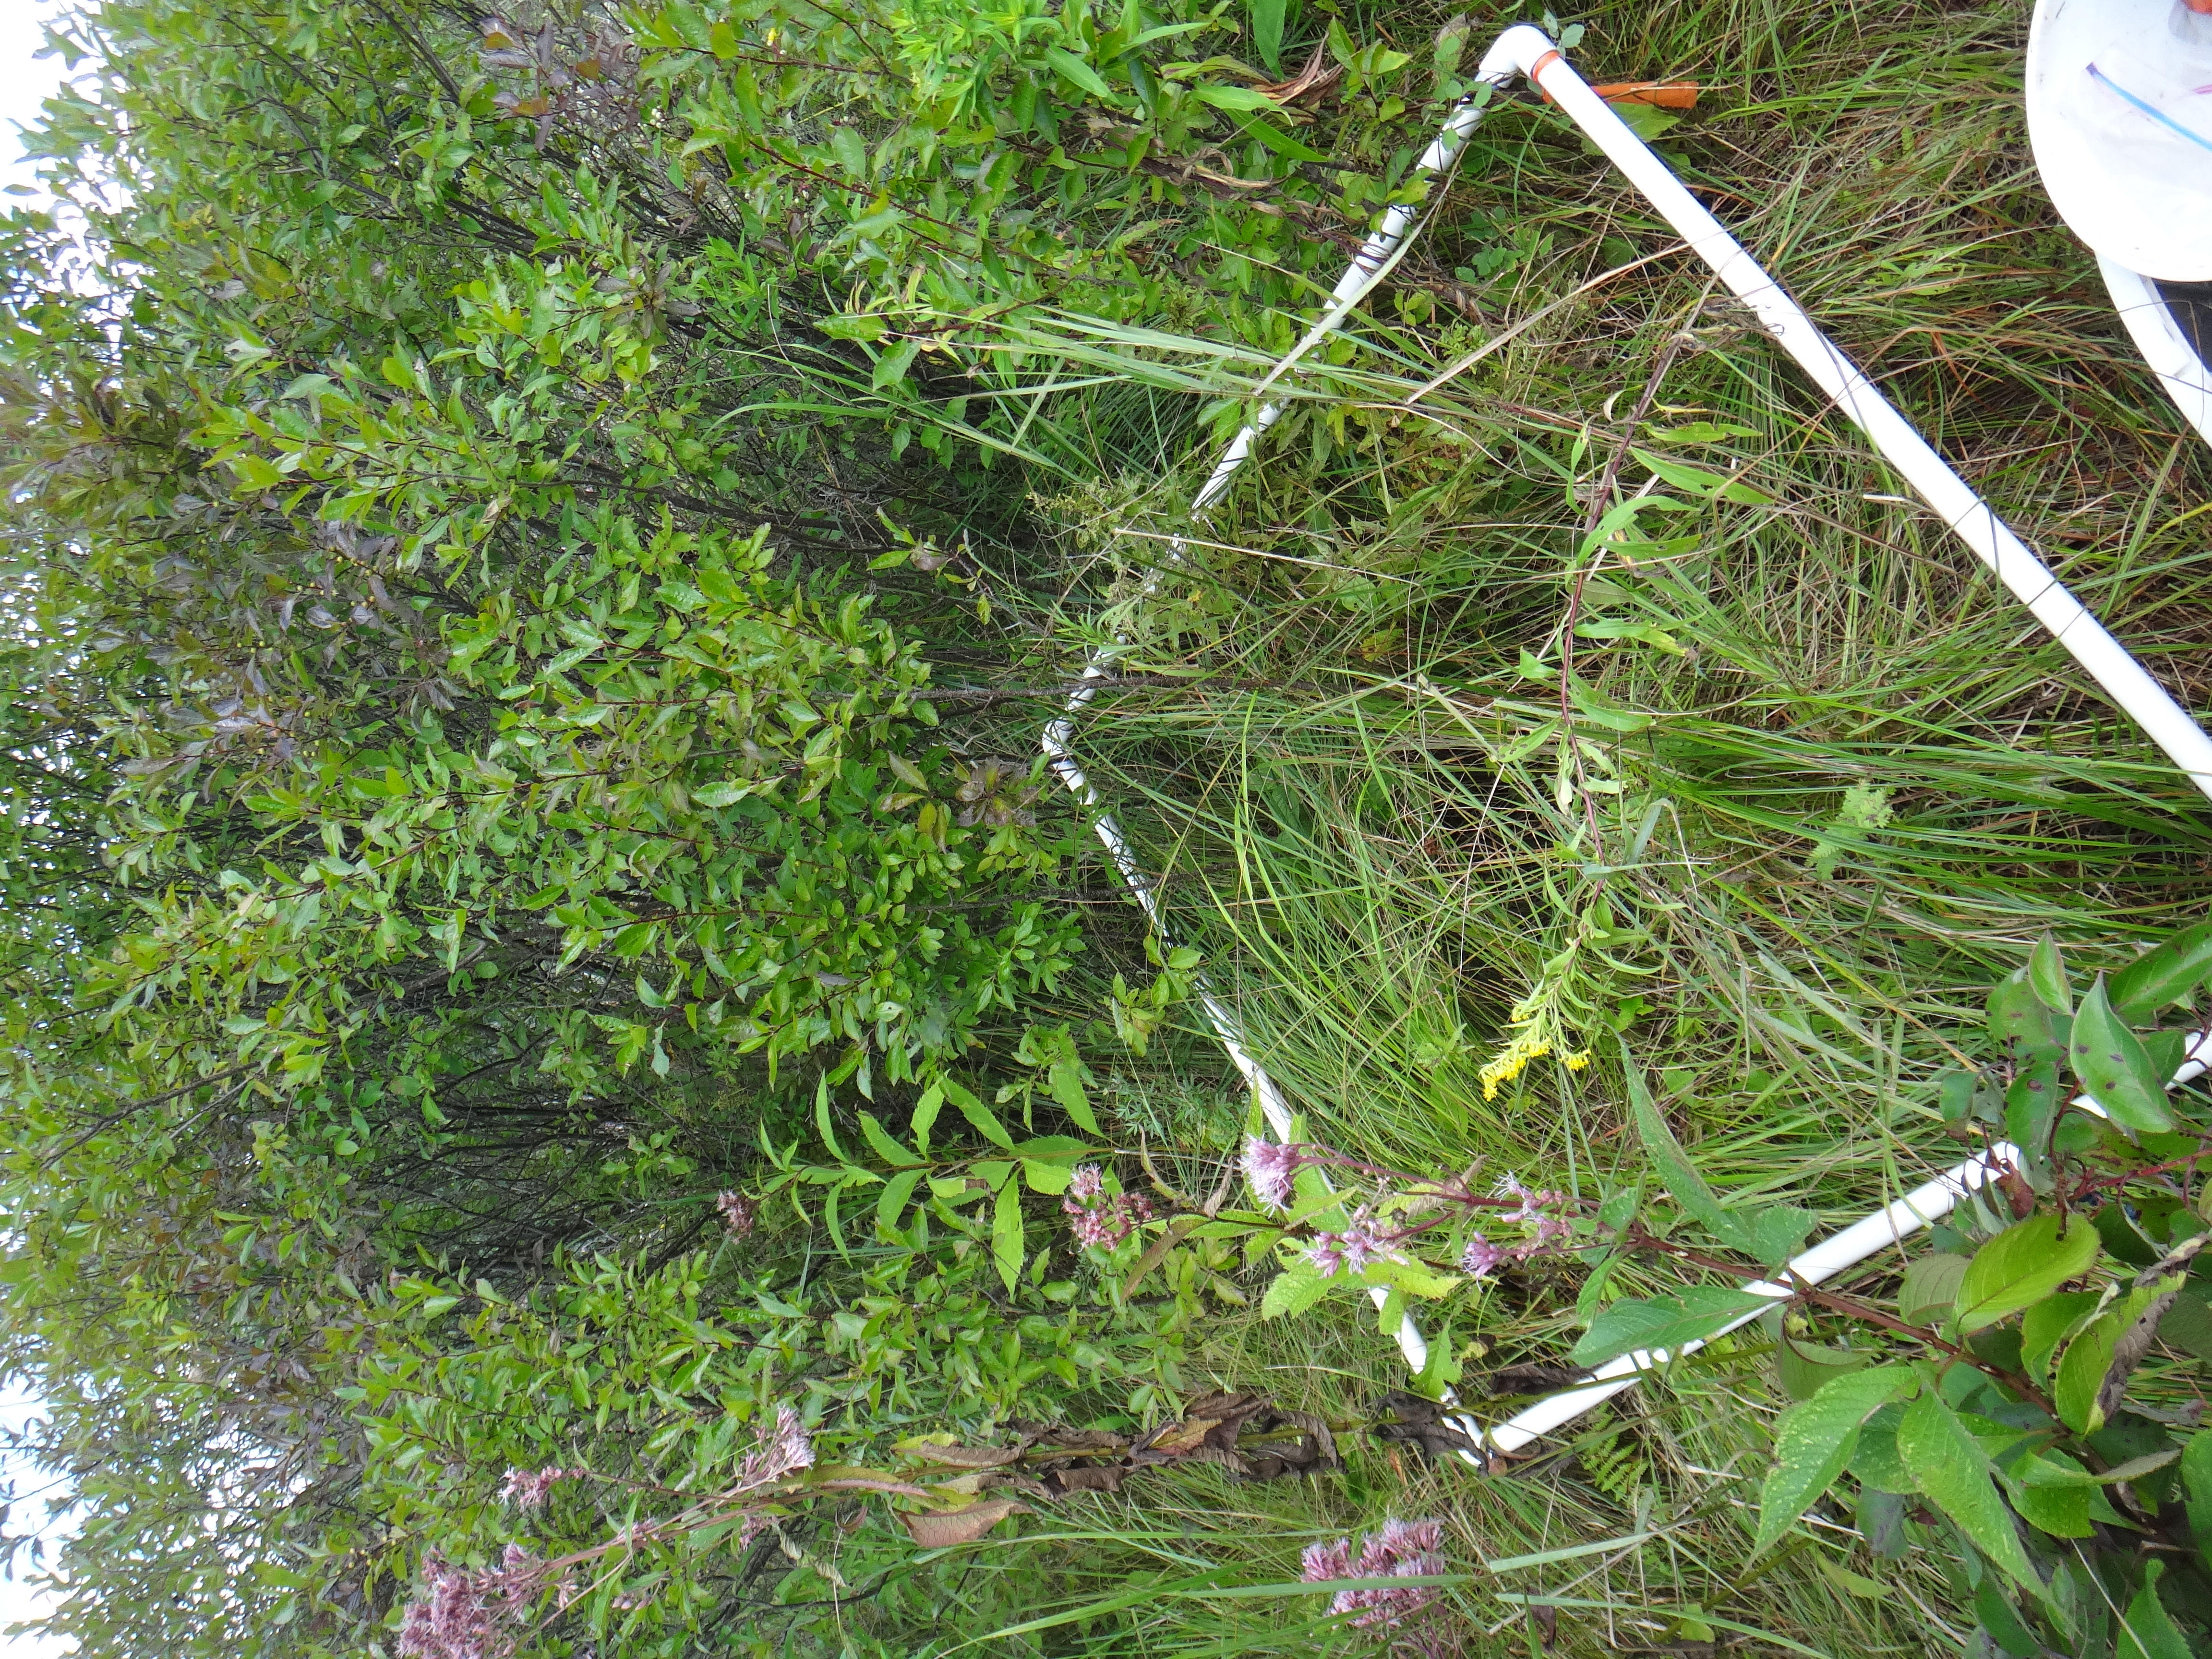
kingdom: Plantae
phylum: Tracheophyta
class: Polypodiopsida
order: Polypodiales
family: Dryopteridaceae
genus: Dryopteris
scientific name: Dryopteris cristata
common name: Crested wood fern
